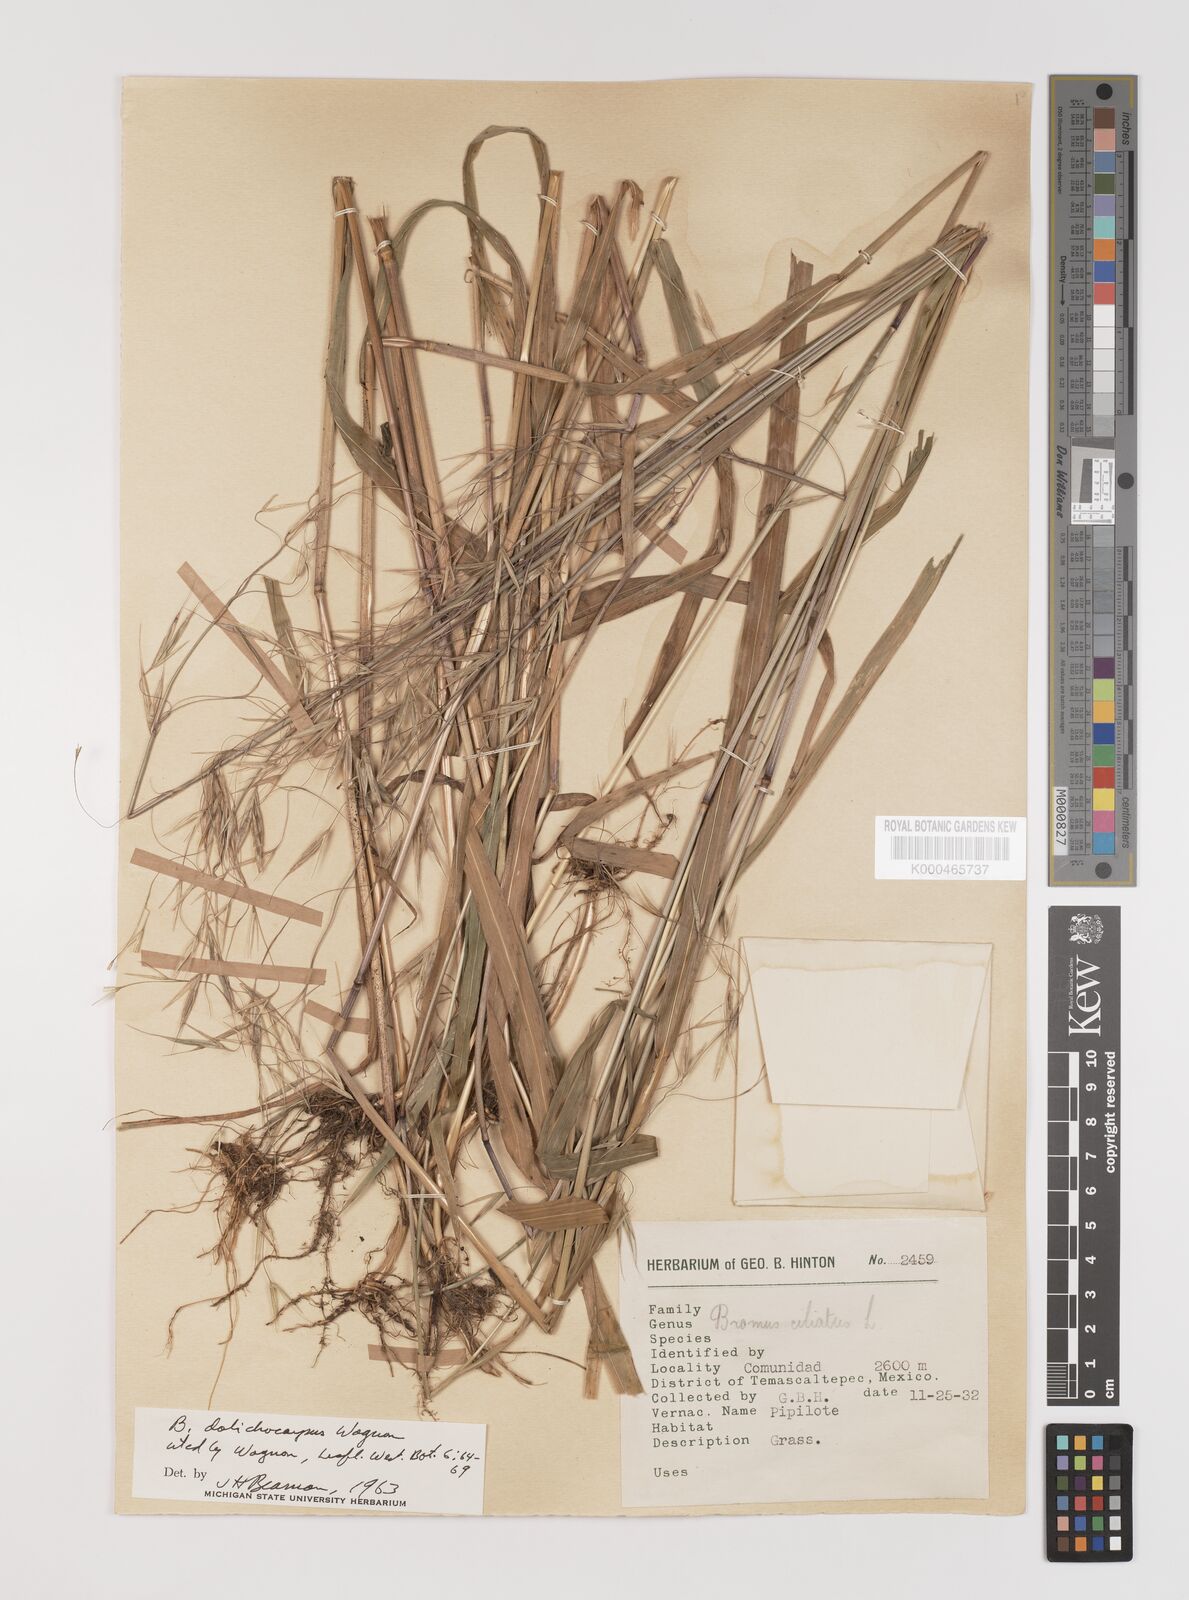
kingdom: Plantae
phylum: Tracheophyta
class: Liliopsida
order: Poales
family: Poaceae
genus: Bromus
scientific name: Bromus ciliatus
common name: Fringe brome
